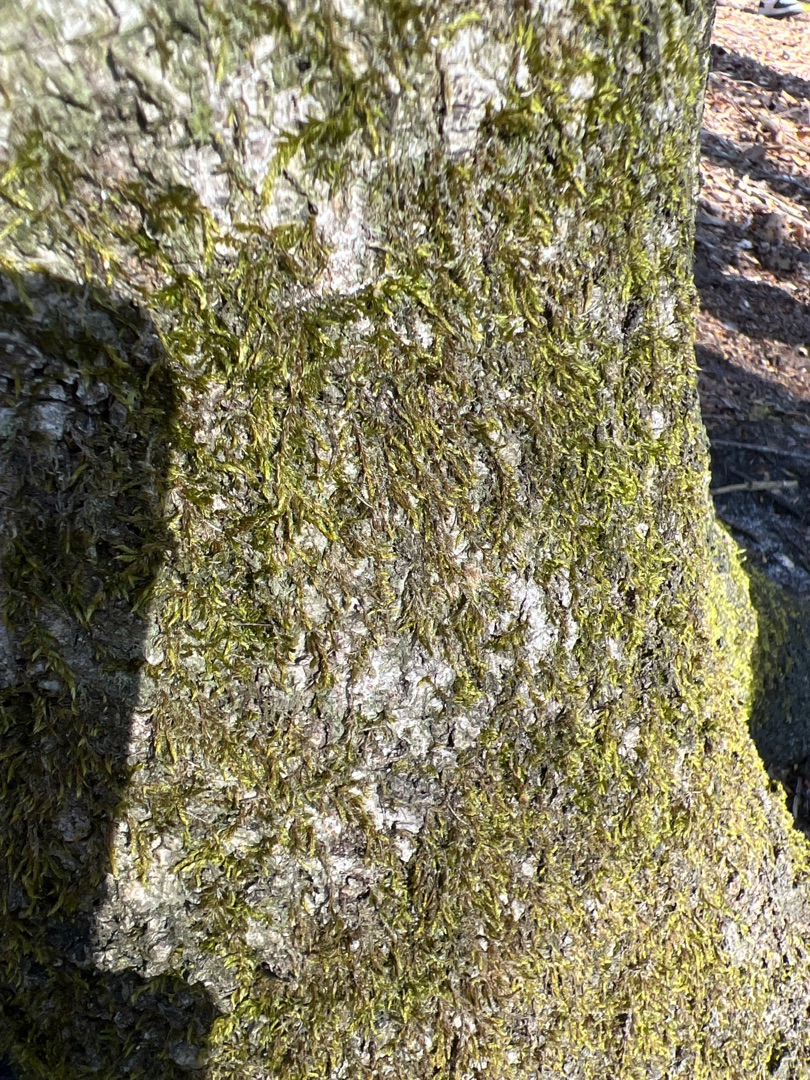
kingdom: Plantae
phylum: Bryophyta
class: Bryopsida
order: Hypnales
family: Hypnaceae
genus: Hypnum
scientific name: Hypnum
